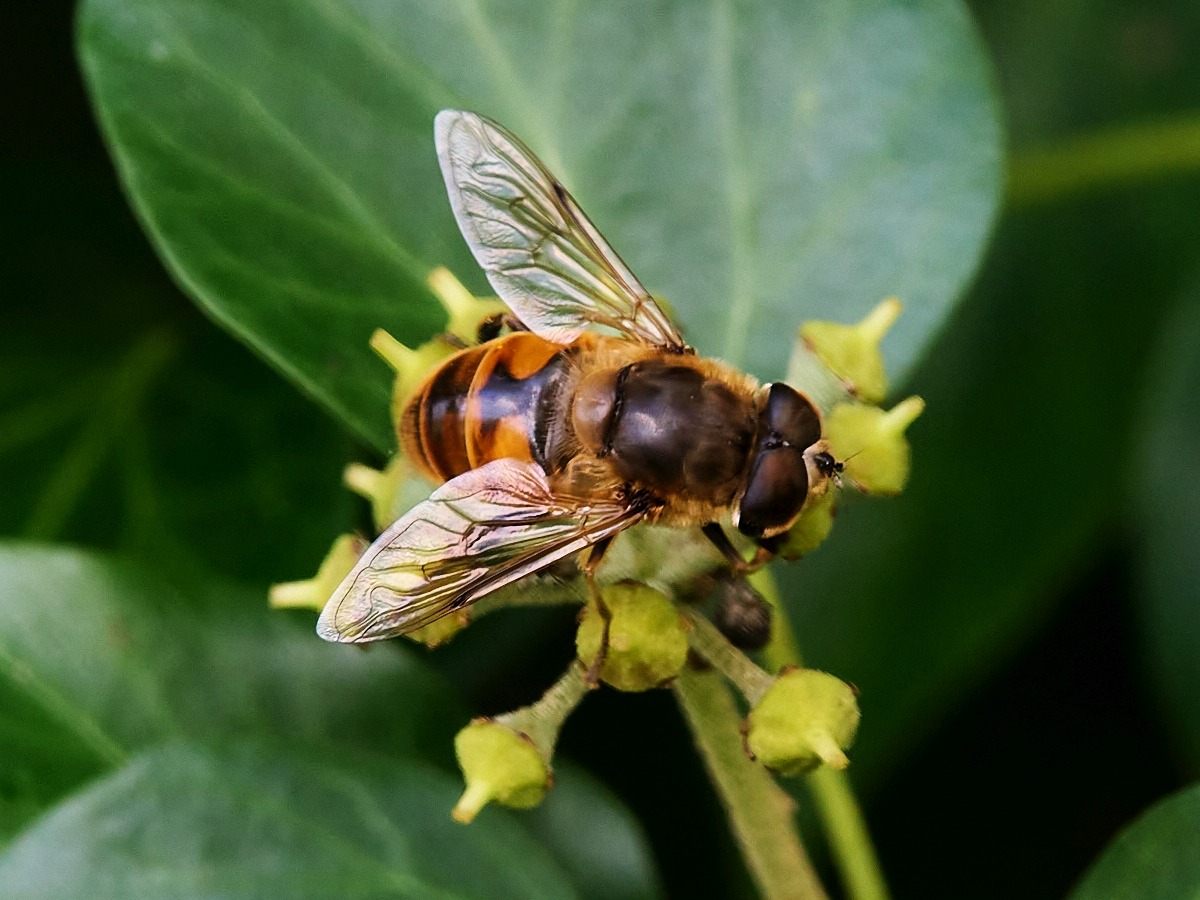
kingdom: Animalia
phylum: Arthropoda
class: Insecta
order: Diptera
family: Syrphidae
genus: Eristalis
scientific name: Eristalis tenax
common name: Droneflue
